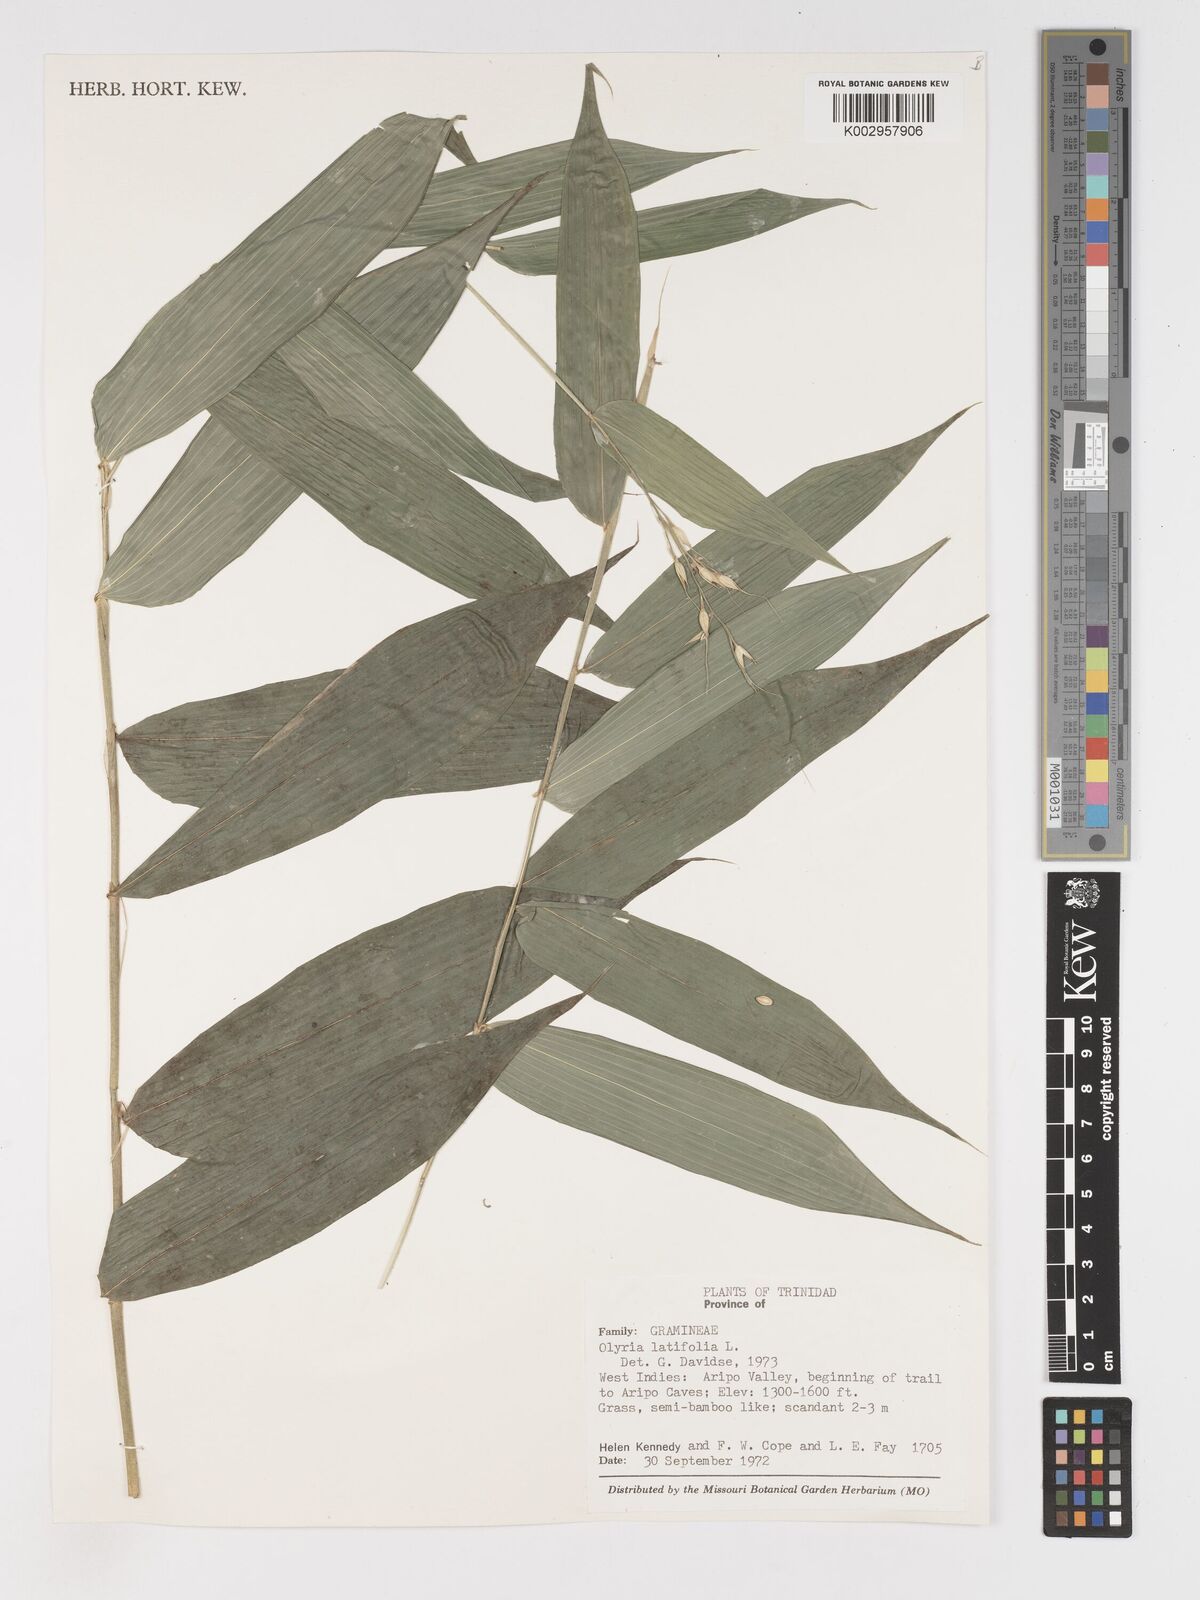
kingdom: Plantae
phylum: Tracheophyta
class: Liliopsida
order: Poales
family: Poaceae
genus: Olyra
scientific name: Olyra latifolia
